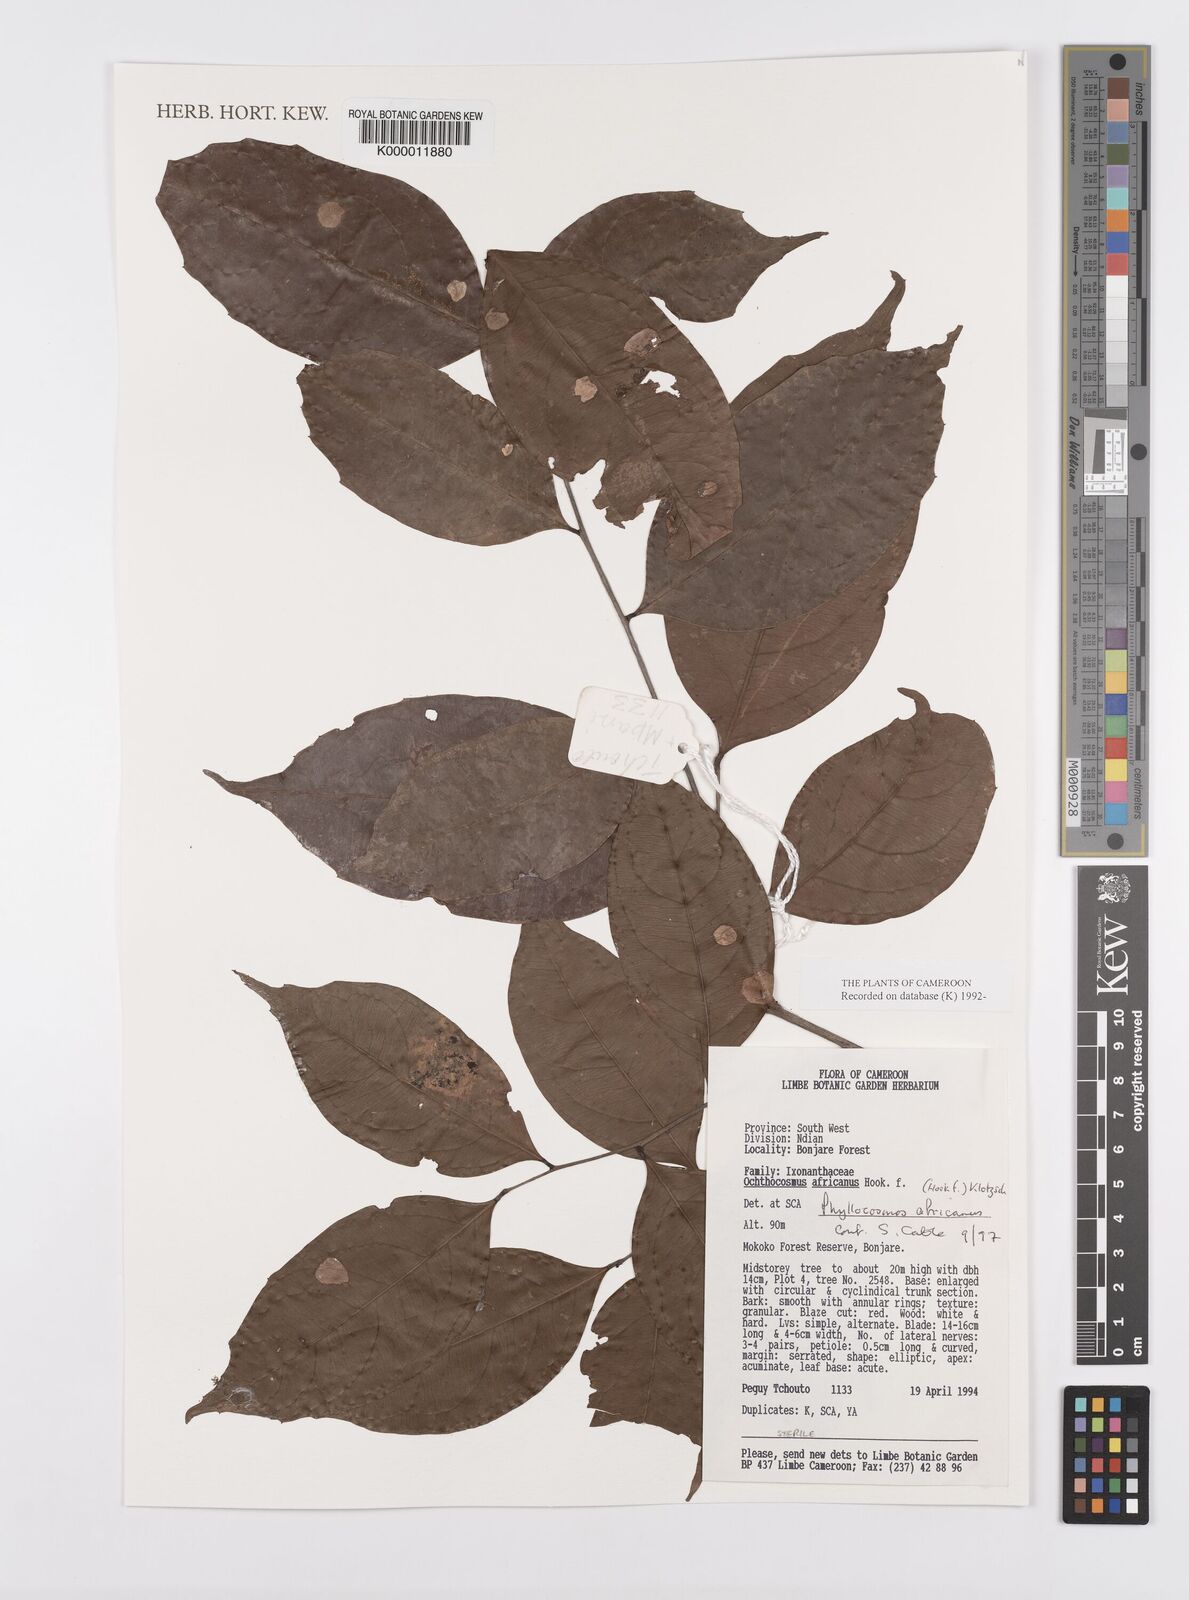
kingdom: Plantae
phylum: Tracheophyta
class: Magnoliopsida
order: Malpighiales
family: Ixonanthaceae
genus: Phyllocosmus
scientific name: Phyllocosmus africanus
